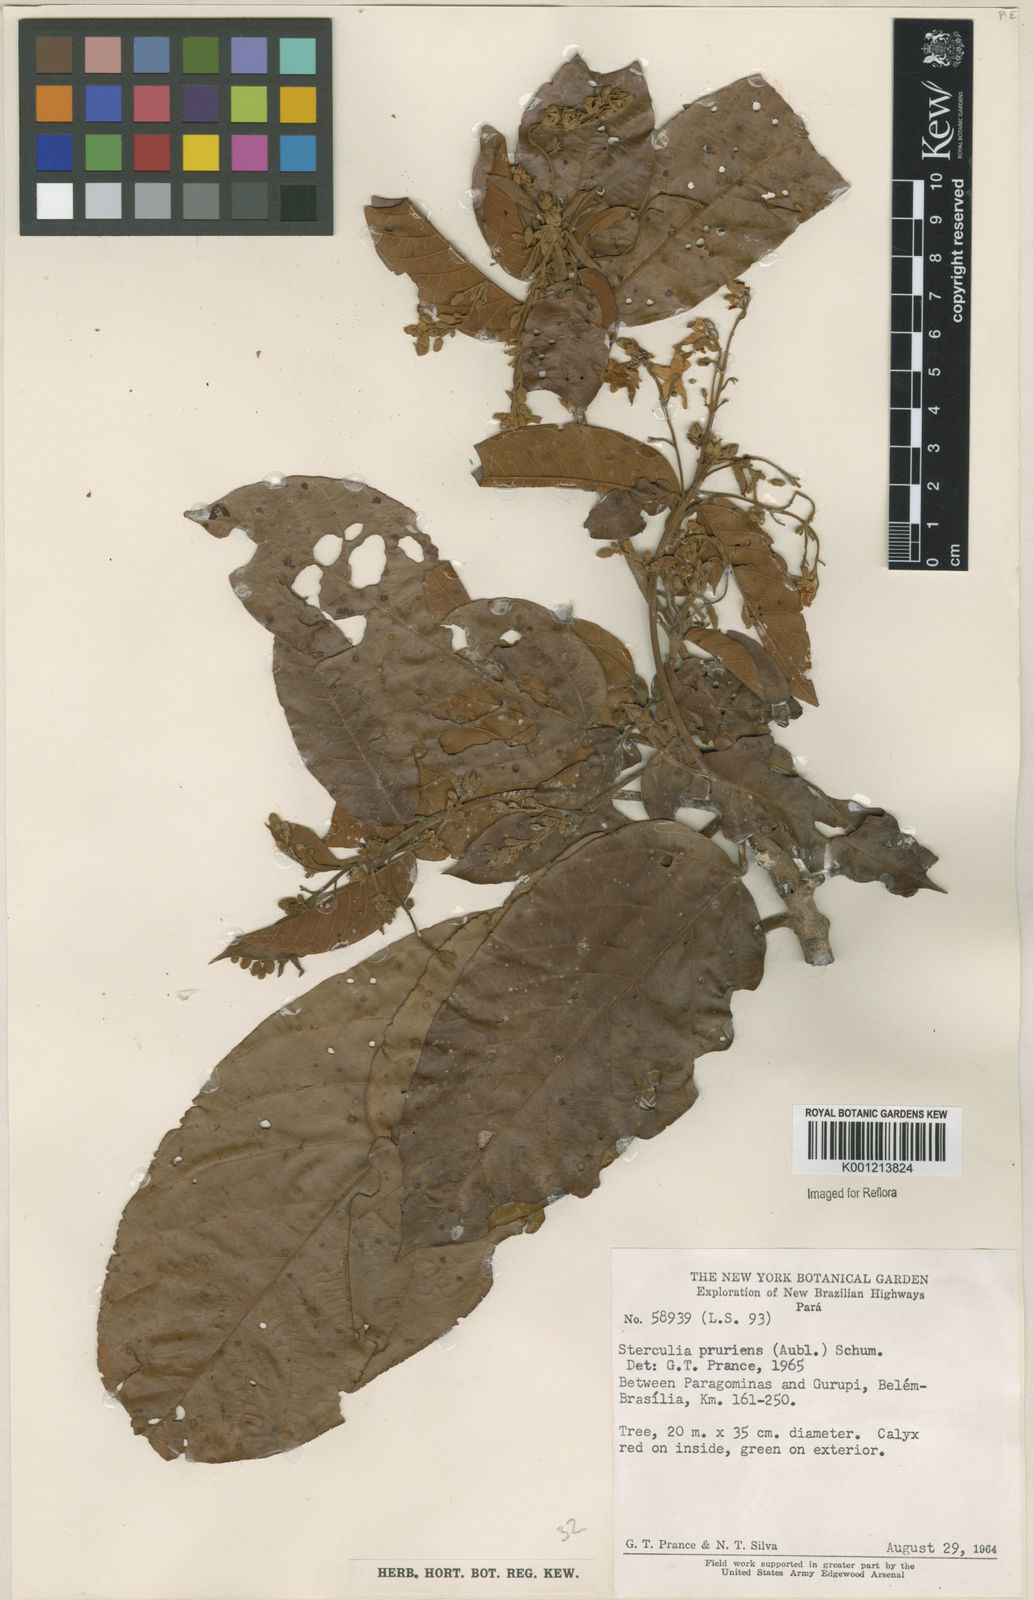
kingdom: Plantae
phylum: Tracheophyta
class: Magnoliopsida
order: Malvales
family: Malvaceae
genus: Sterculia
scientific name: Sterculia pruriens
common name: Grand mahot
